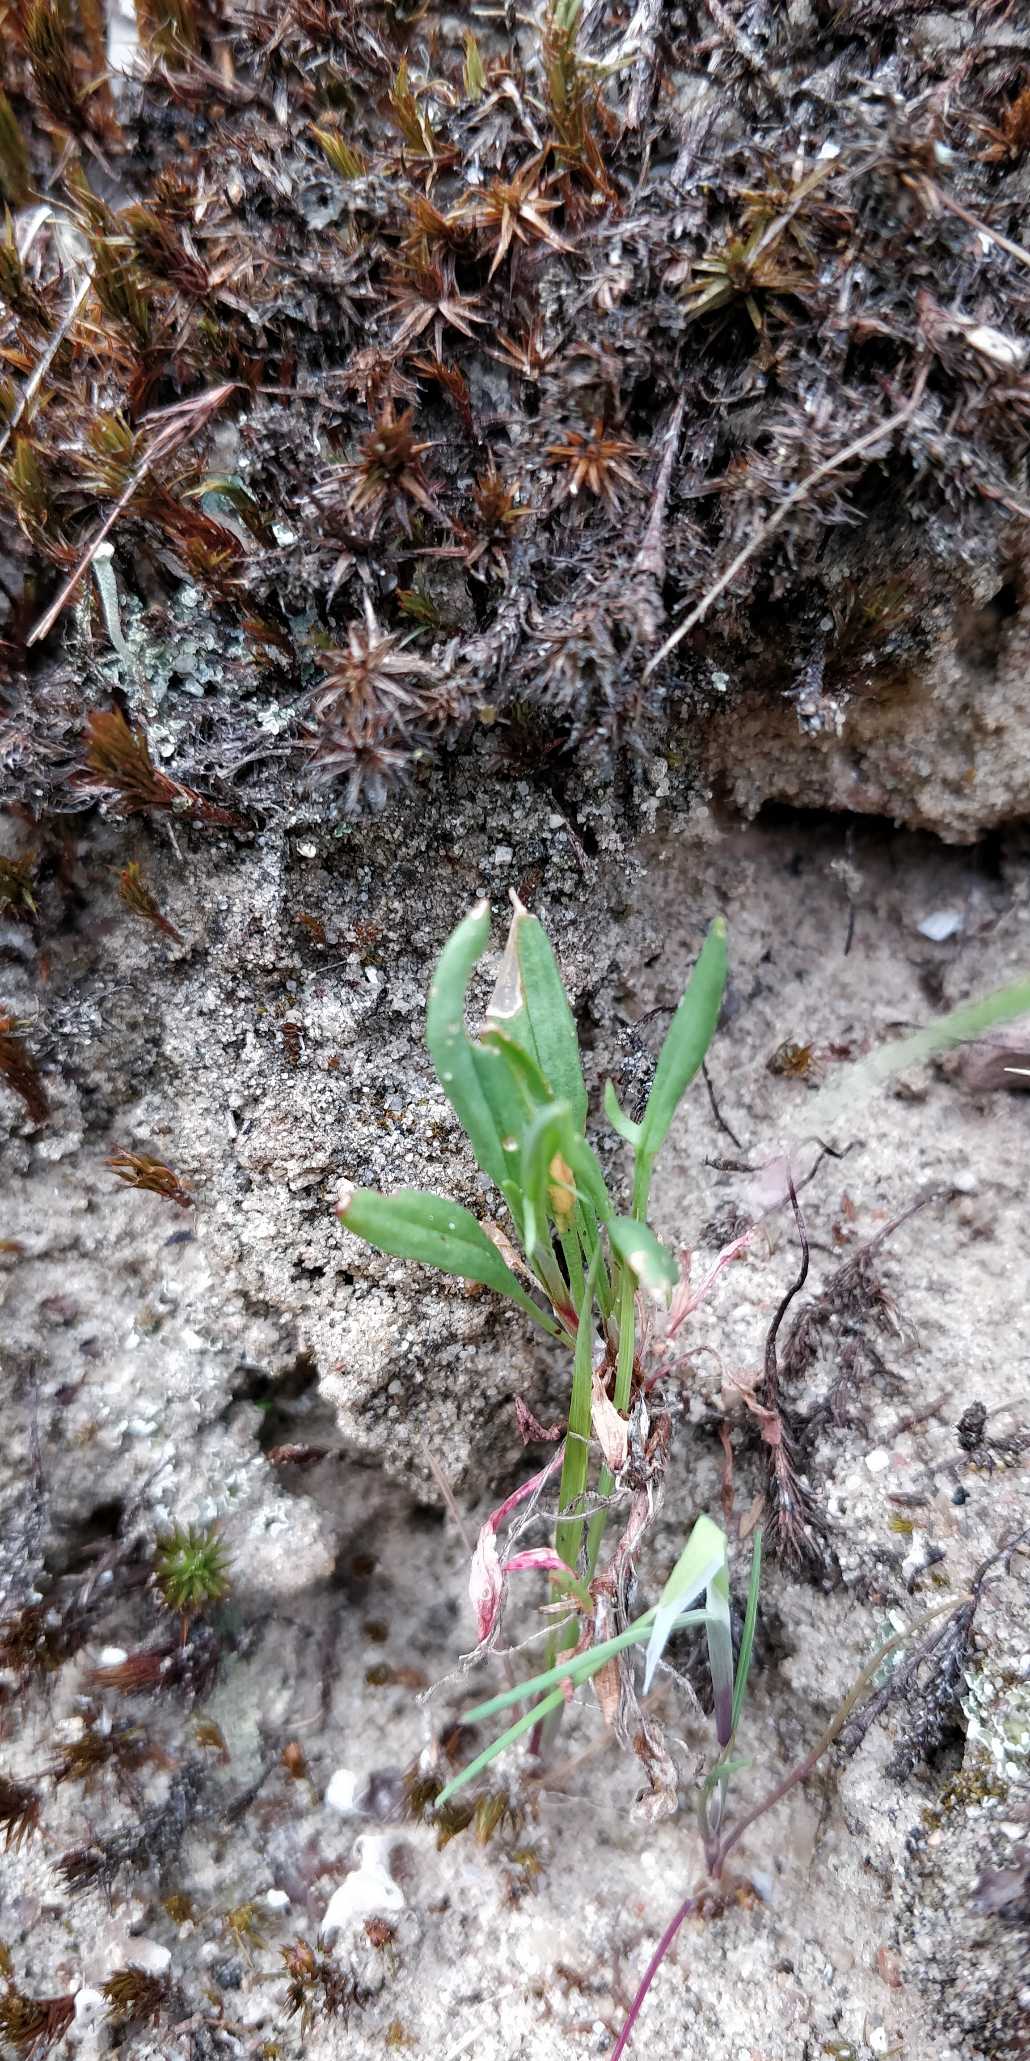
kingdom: Plantae
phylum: Tracheophyta
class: Magnoliopsida
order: Caryophyllales
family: Polygonaceae
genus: Rumex
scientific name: Rumex acetosella
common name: Rødknæ
